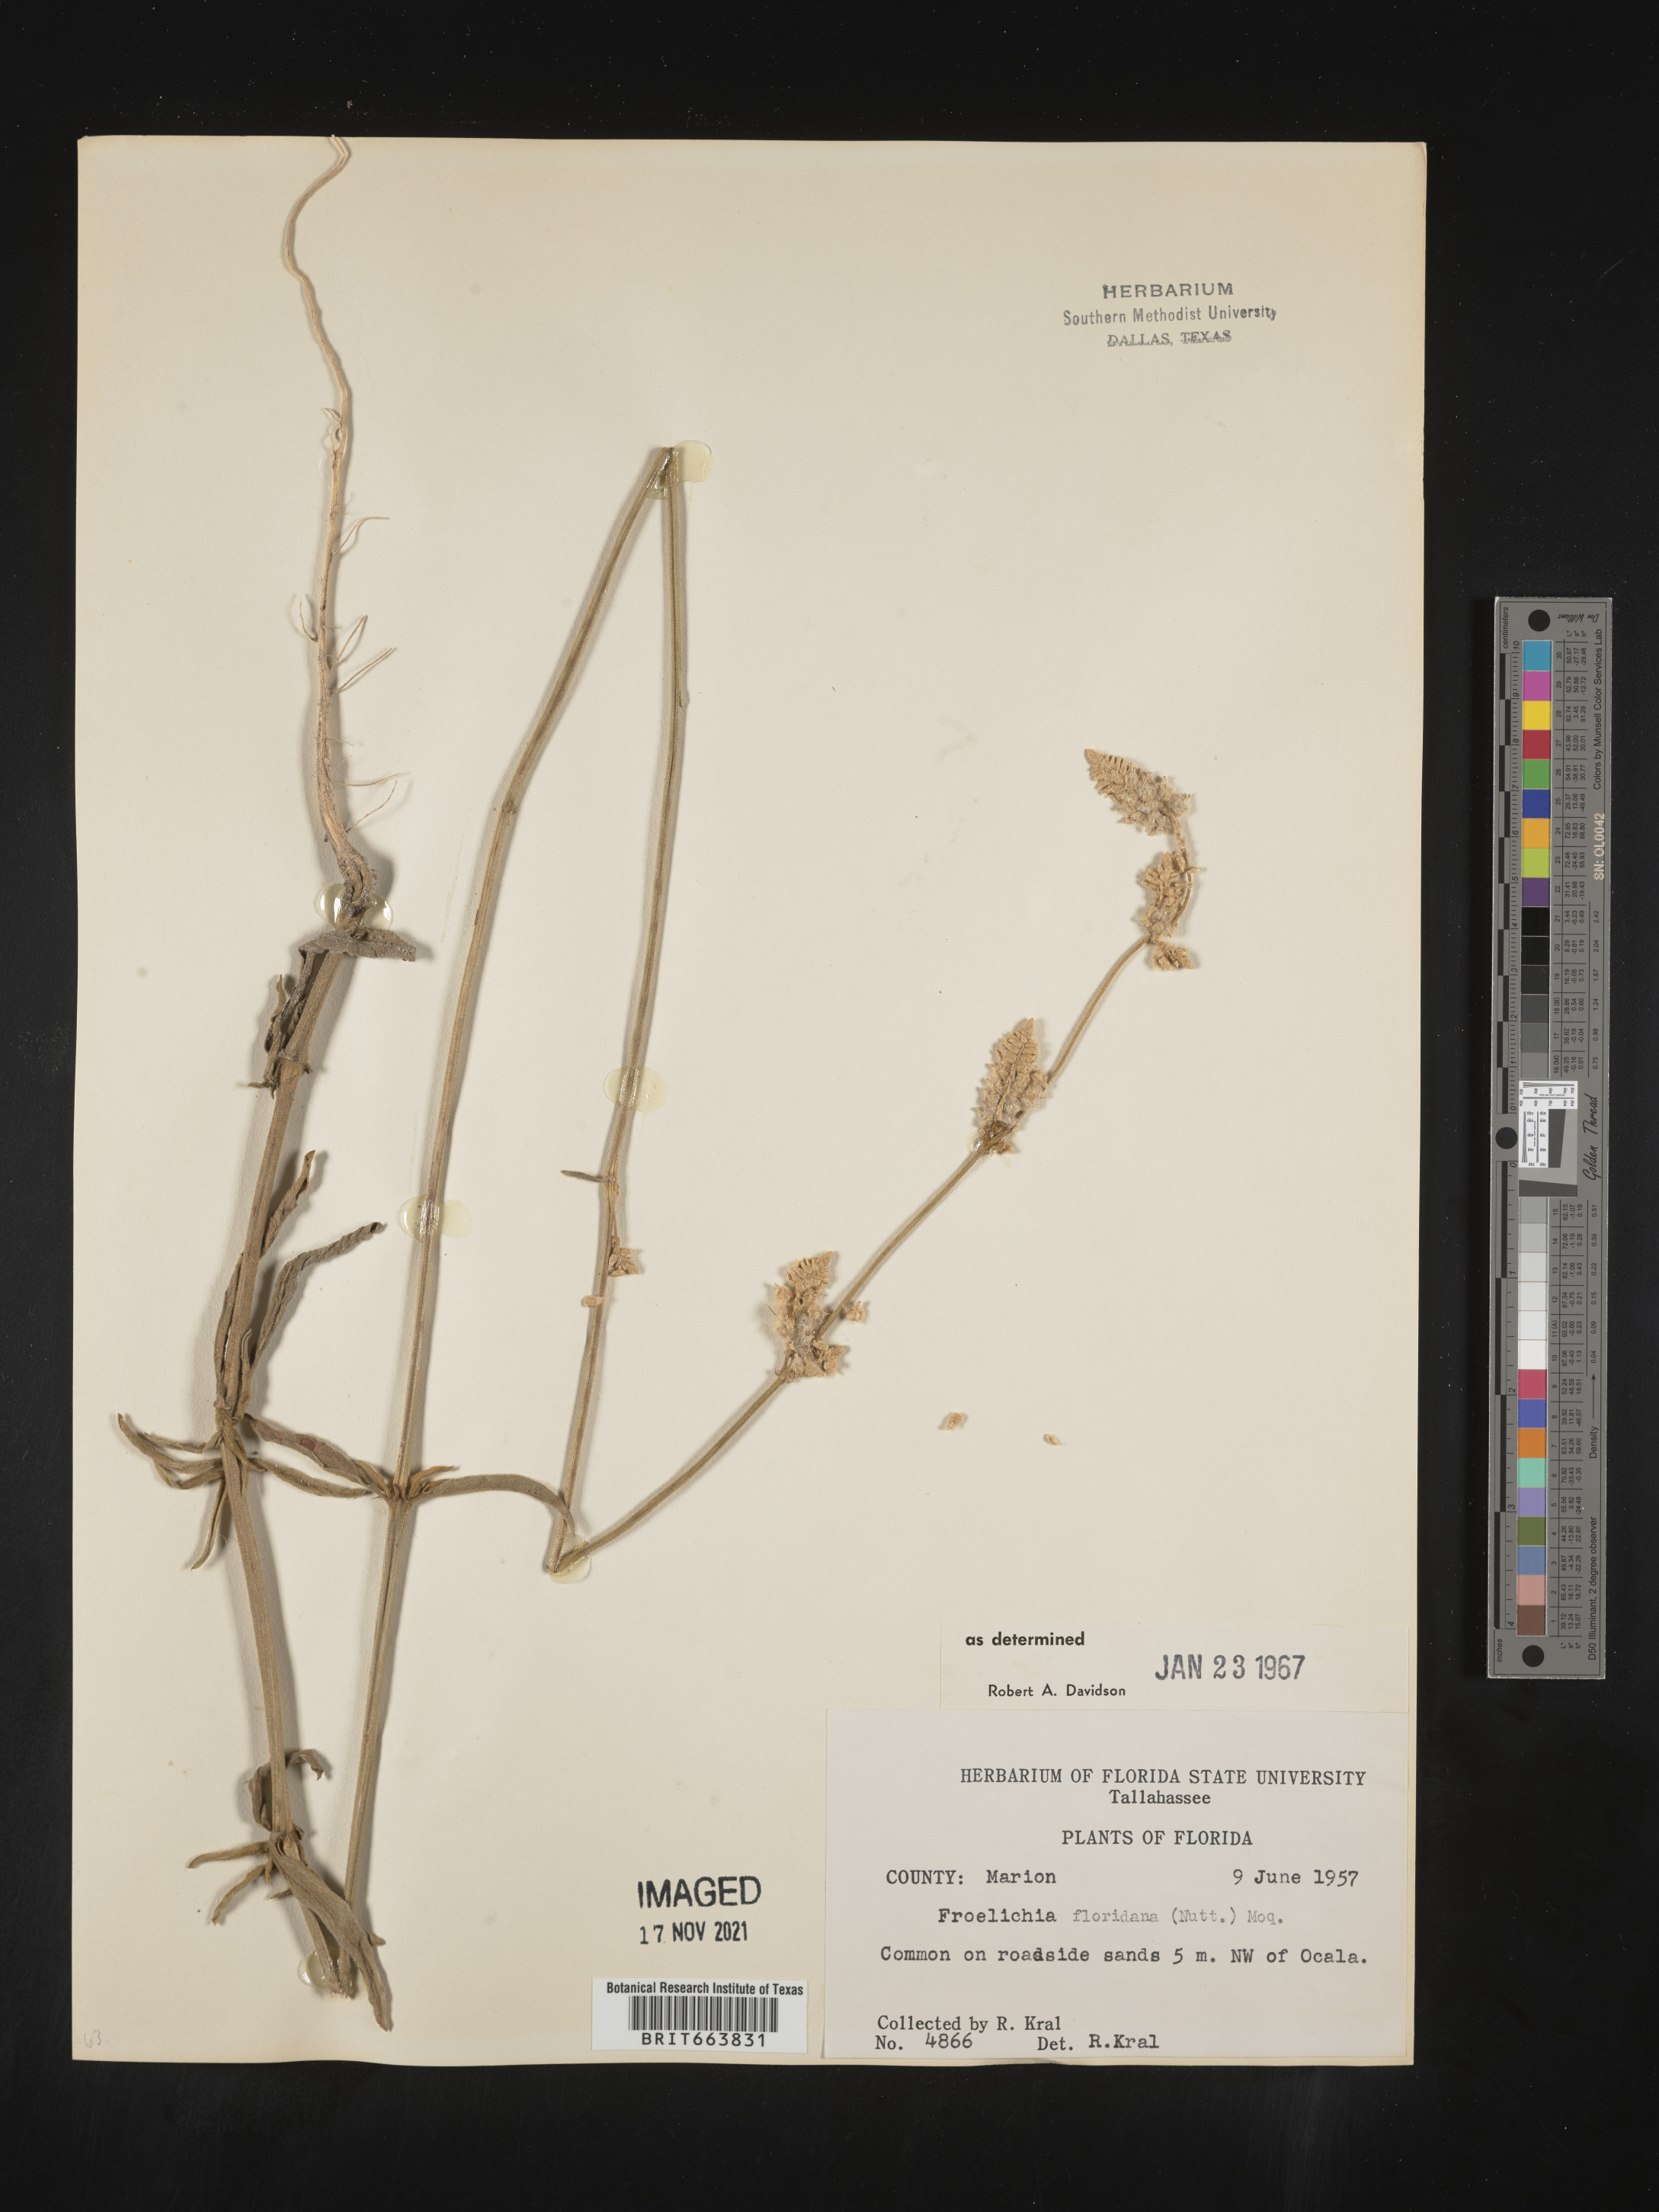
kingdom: Plantae
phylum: Tracheophyta
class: Magnoliopsida
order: Caryophyllales
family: Amaranthaceae
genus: Froelichia
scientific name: Froelichia floridana
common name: Florida snake-cotton
